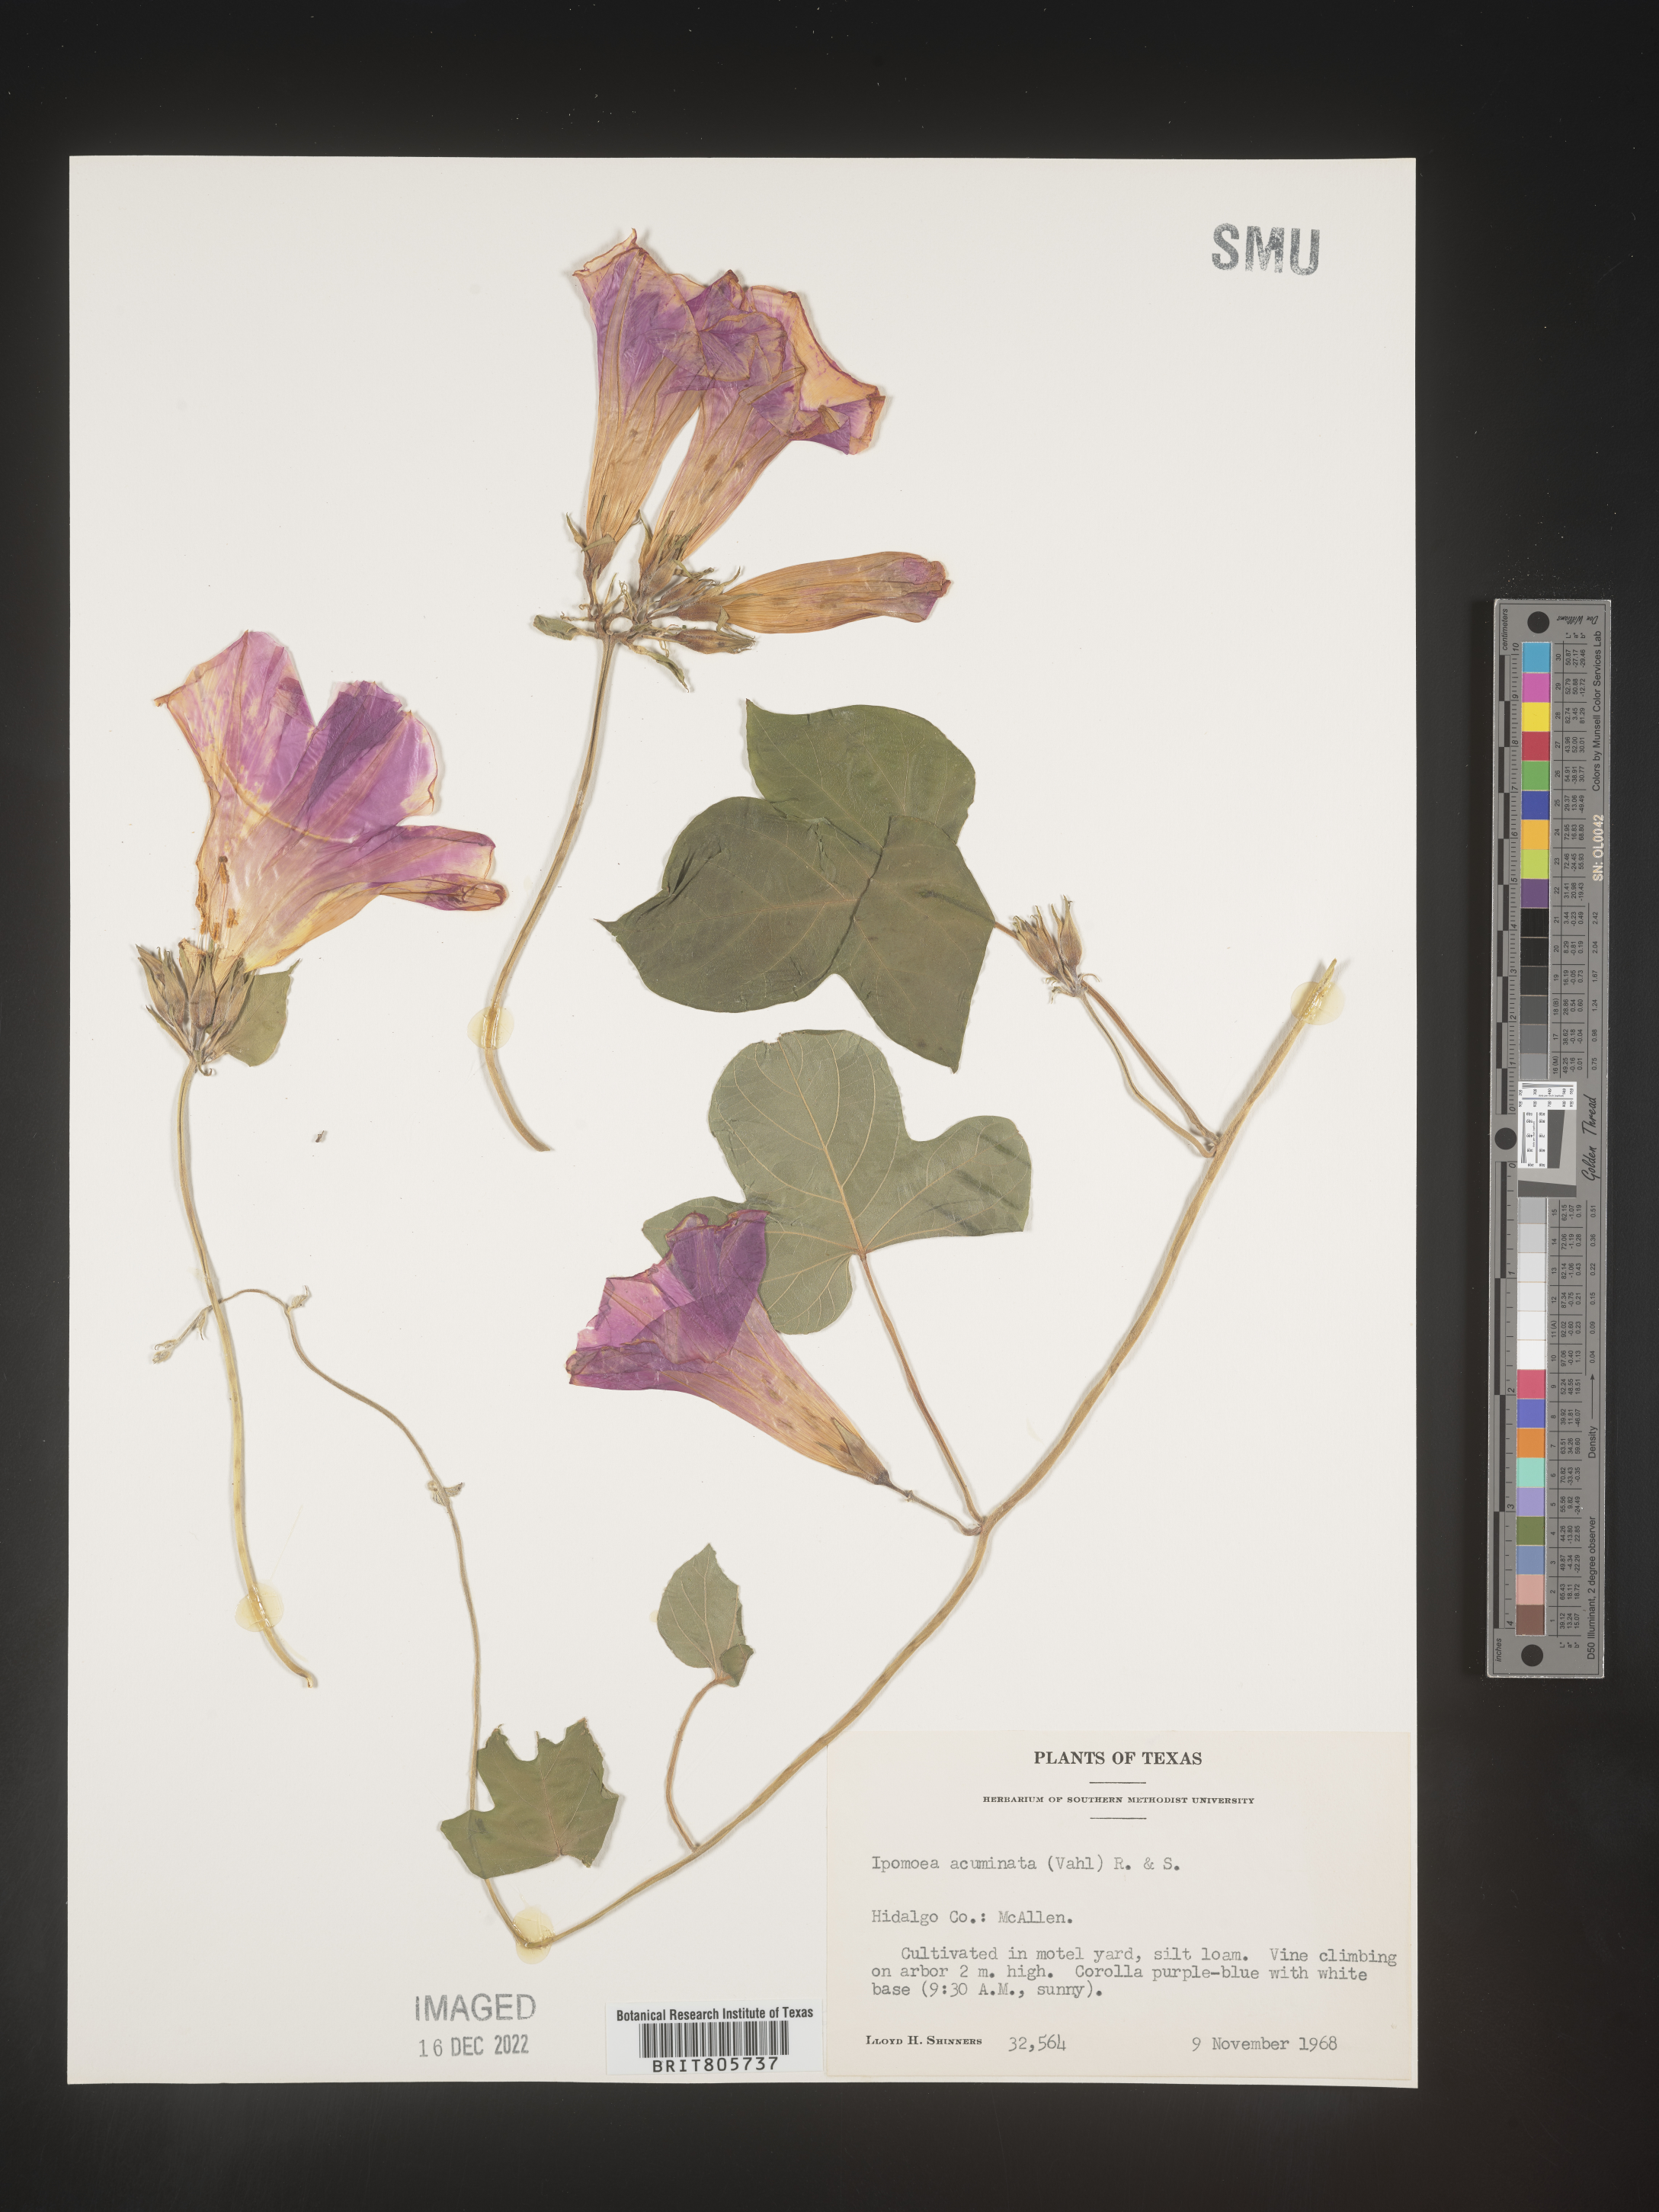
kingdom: Plantae
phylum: Tracheophyta
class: Magnoliopsida
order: Solanales
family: Convolvulaceae
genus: Ipomoea
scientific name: Ipomoea coccinea
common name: Red morning-glory
